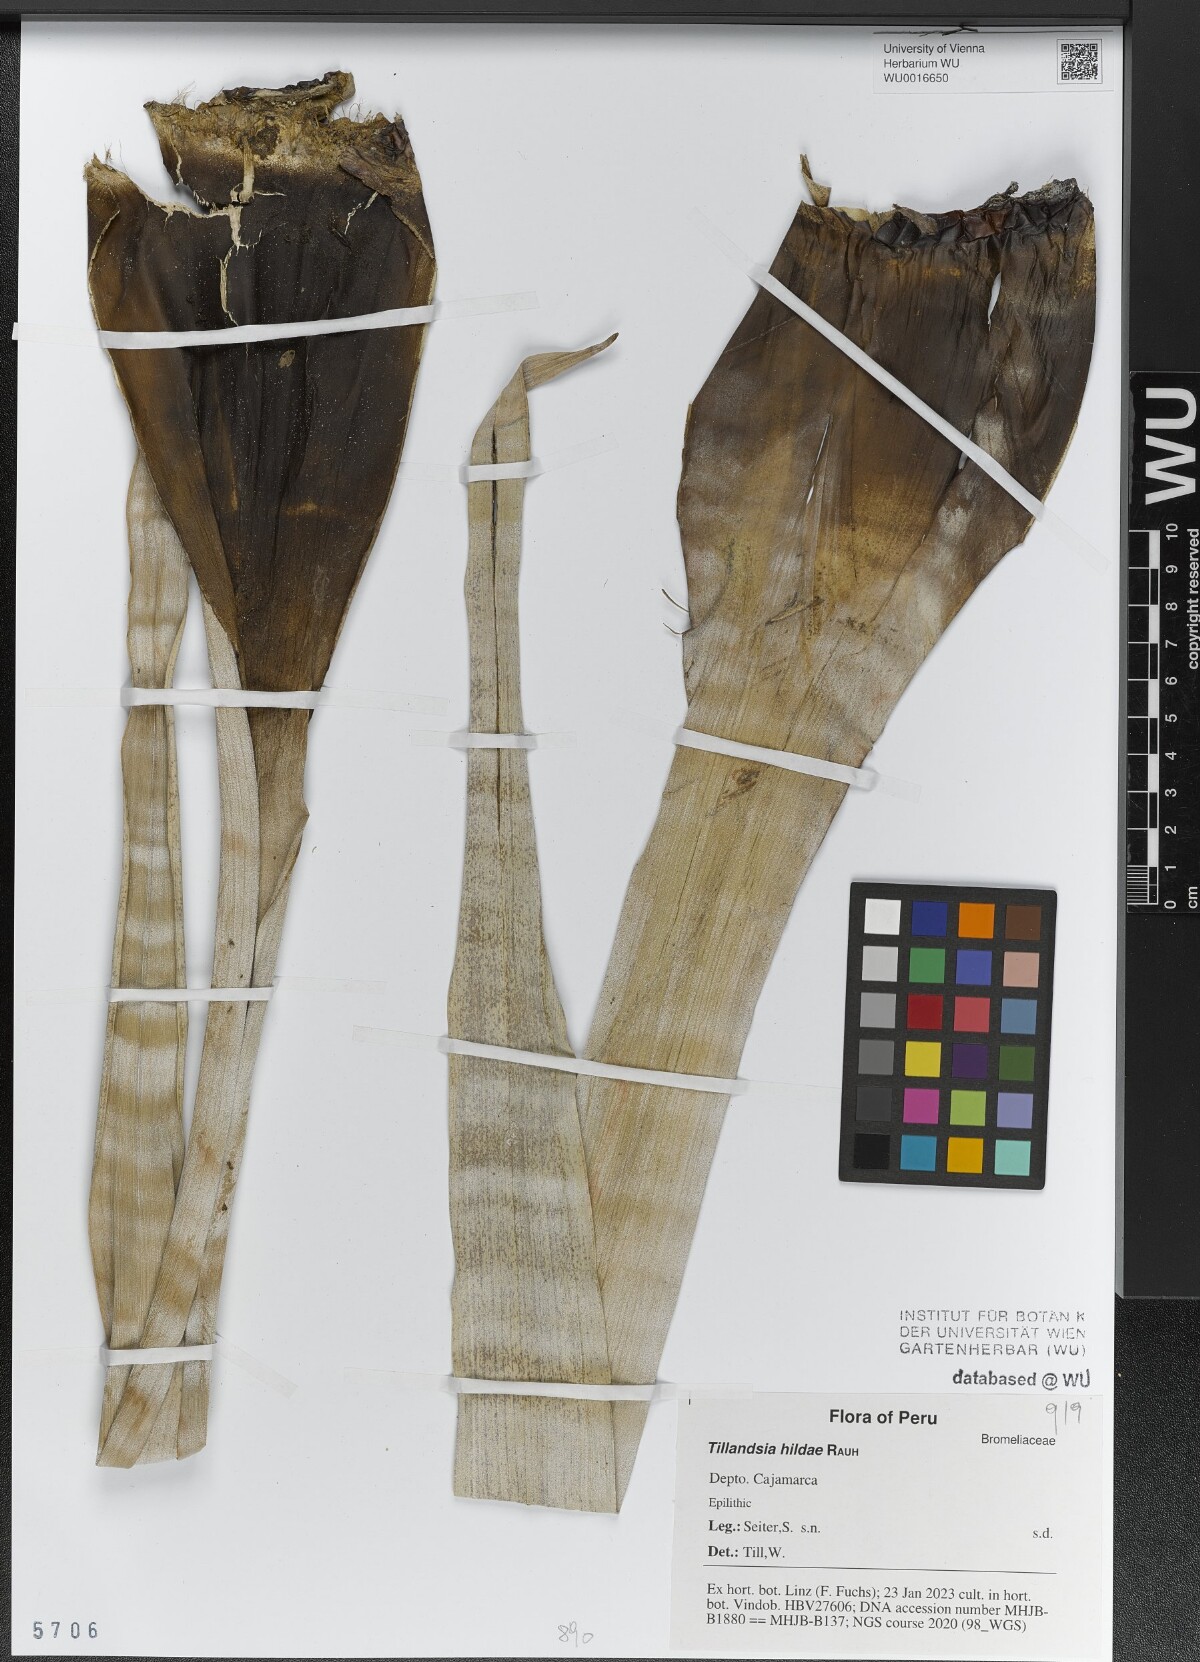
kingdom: Plantae
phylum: Tracheophyta
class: Liliopsida
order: Poales
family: Bromeliaceae
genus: Tillandsia
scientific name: Tillandsia hildae
